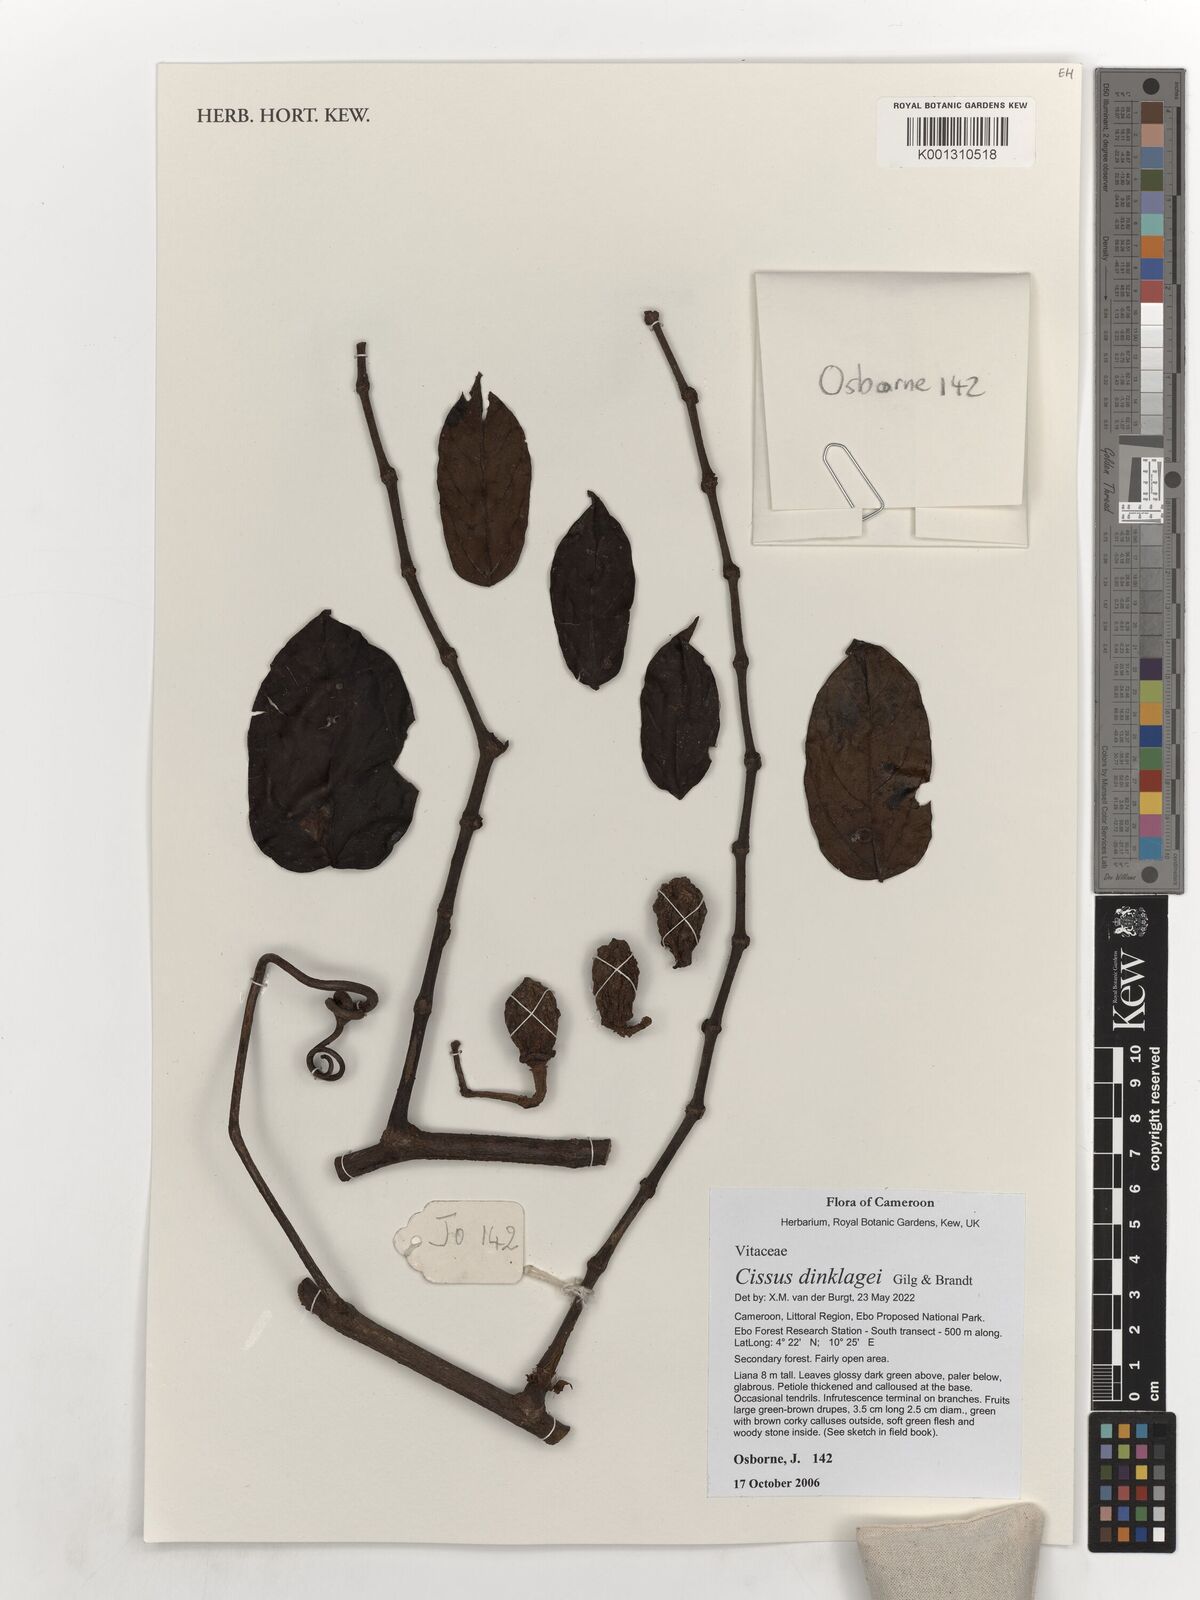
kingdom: Plantae
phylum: Tracheophyta
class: Magnoliopsida
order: Vitales
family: Vitaceae
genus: Cissus
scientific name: Cissus dinklagei
